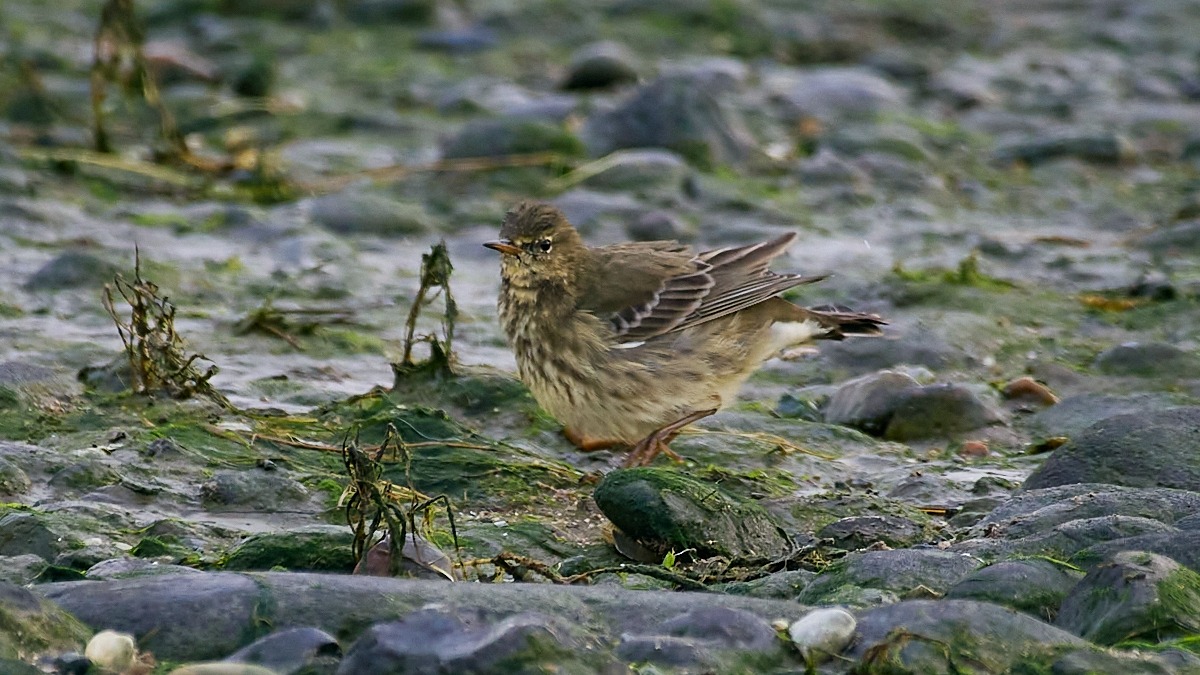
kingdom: Animalia
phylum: Chordata
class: Aves
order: Passeriformes
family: Motacillidae
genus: Anthus
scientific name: Anthus petrosus
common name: Skærpiber
